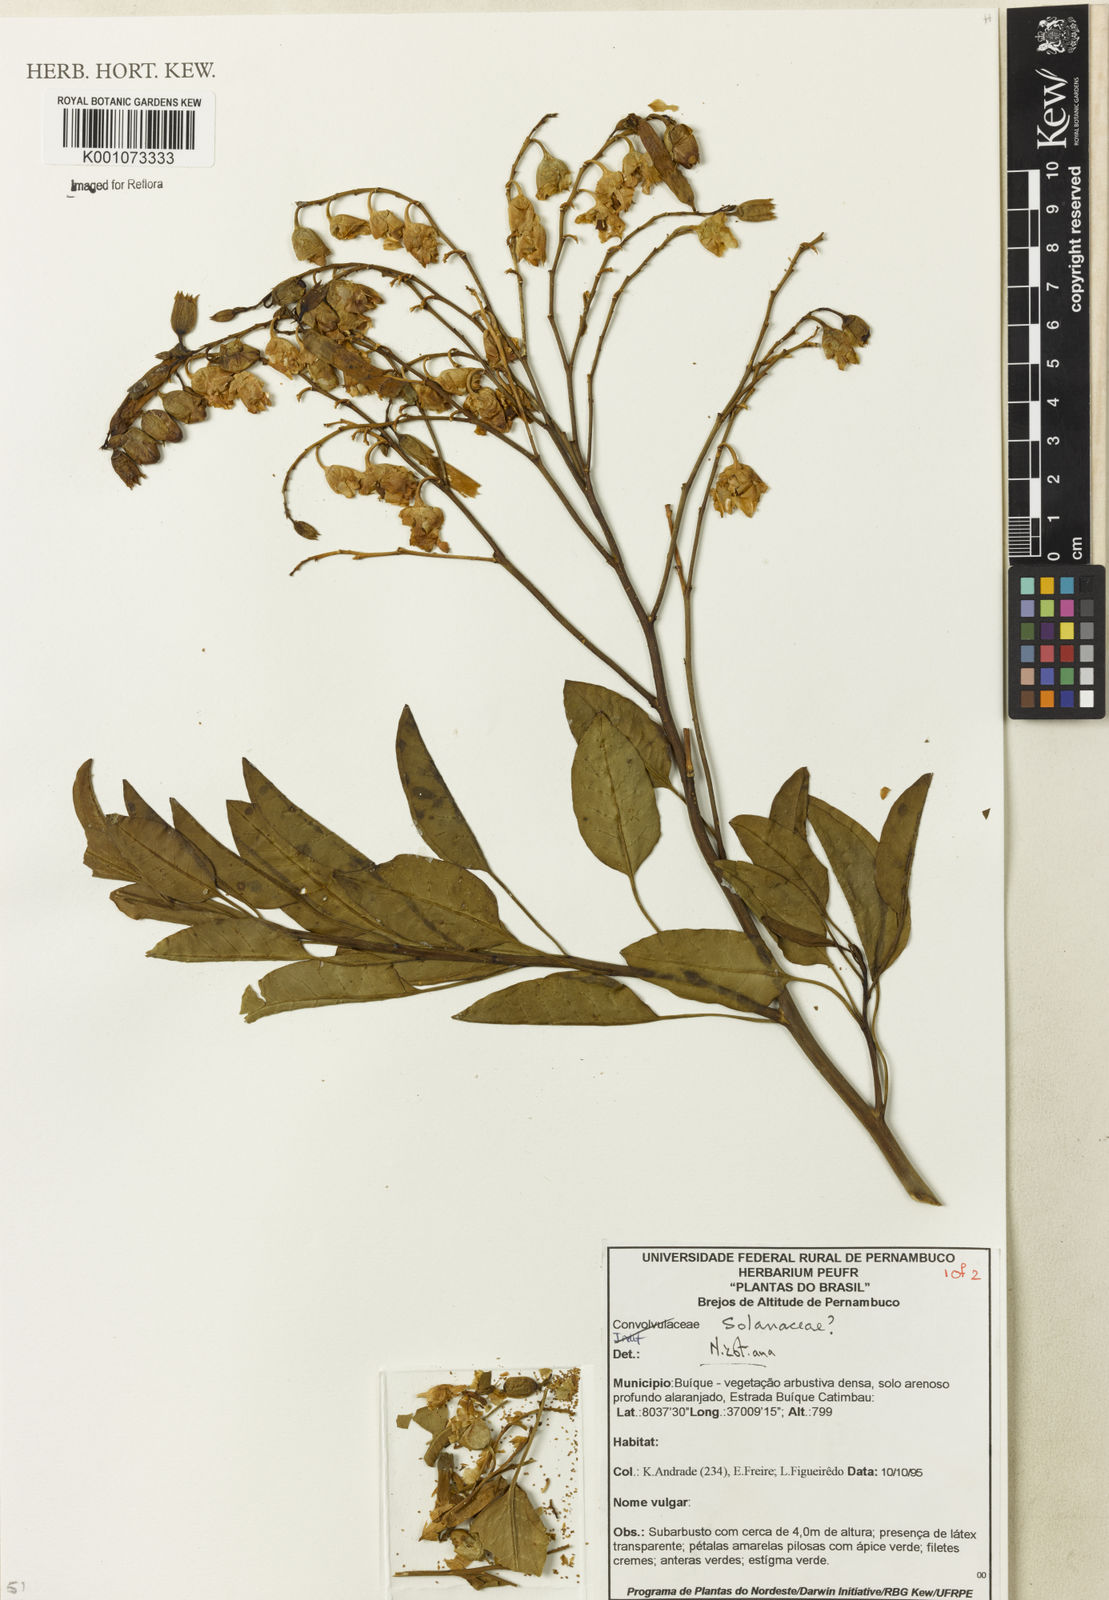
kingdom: Plantae
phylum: Tracheophyta
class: Magnoliopsida
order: Solanales
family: Solanaceae
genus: Nicotiana
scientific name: Nicotiana
